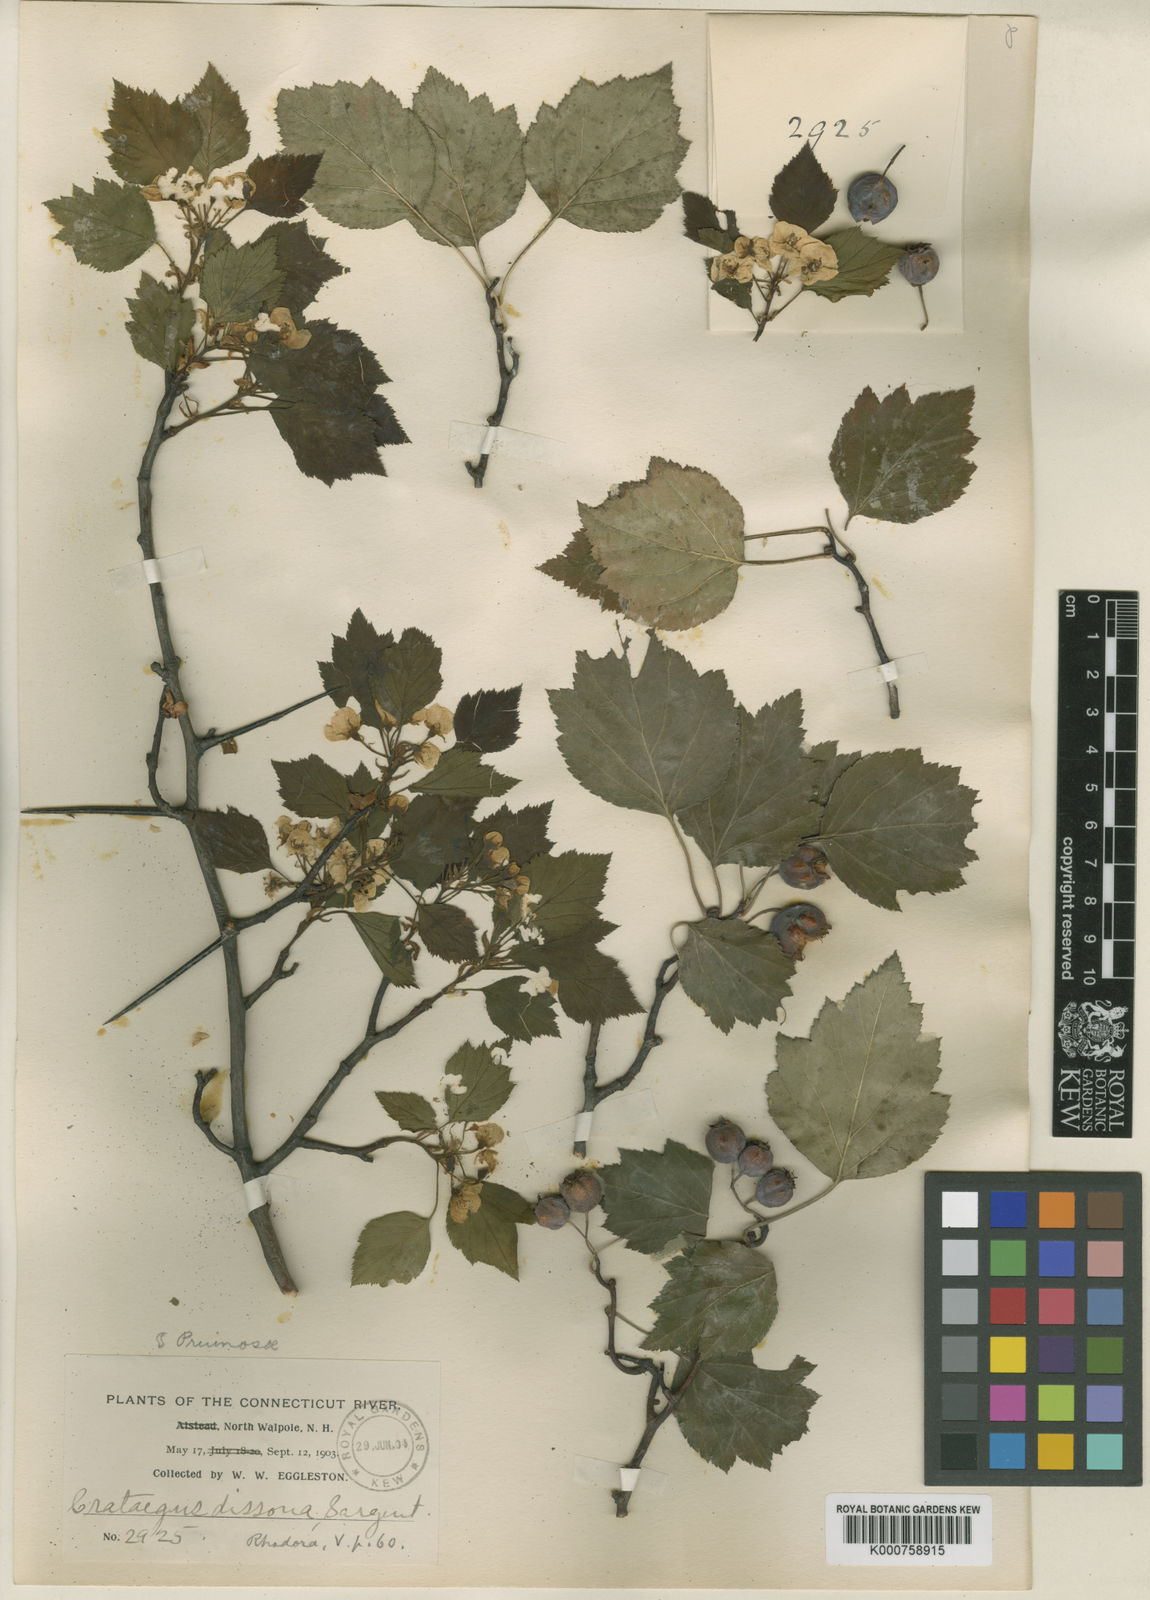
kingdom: Plantae
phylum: Tracheophyta
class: Magnoliopsida
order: Rosales
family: Rosaceae
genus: Crataegus
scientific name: Crataegus pruinosa
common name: Waxy-fruit hawthorn
